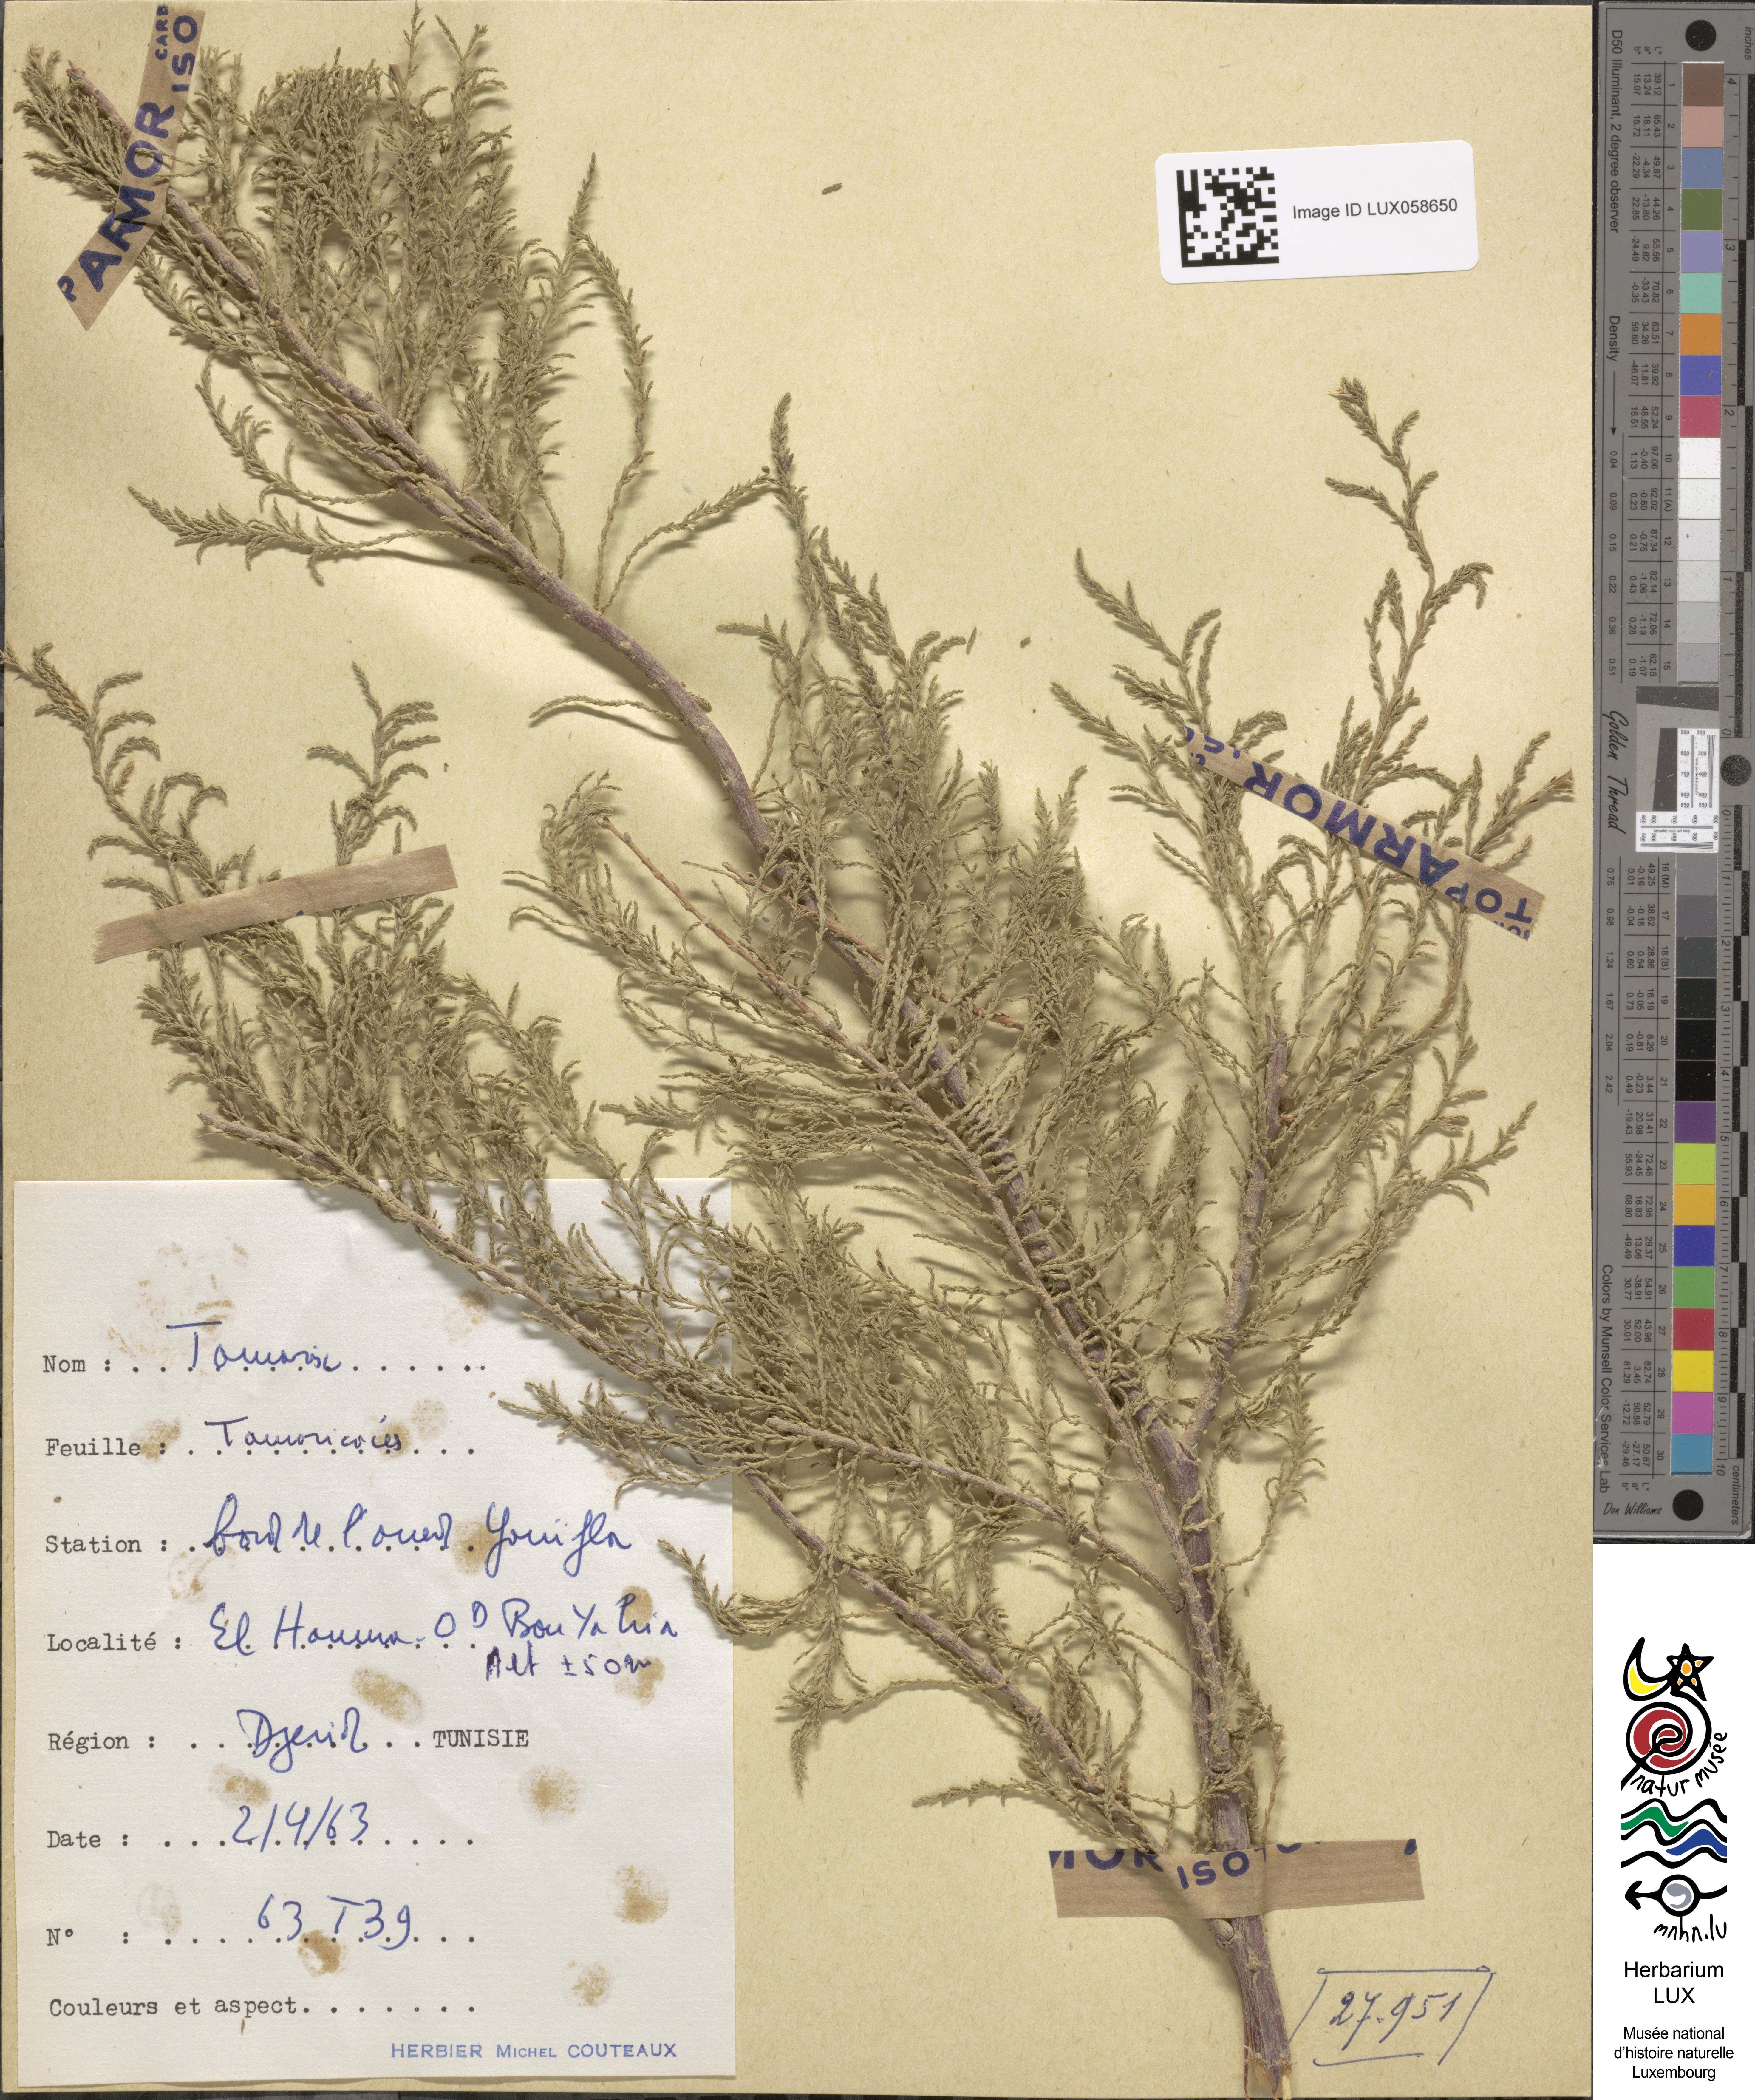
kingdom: Plantae
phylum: Tracheophyta
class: Magnoliopsida
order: Caryophyllales
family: Tamaricaceae
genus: Tamarix
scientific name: Tamarix
